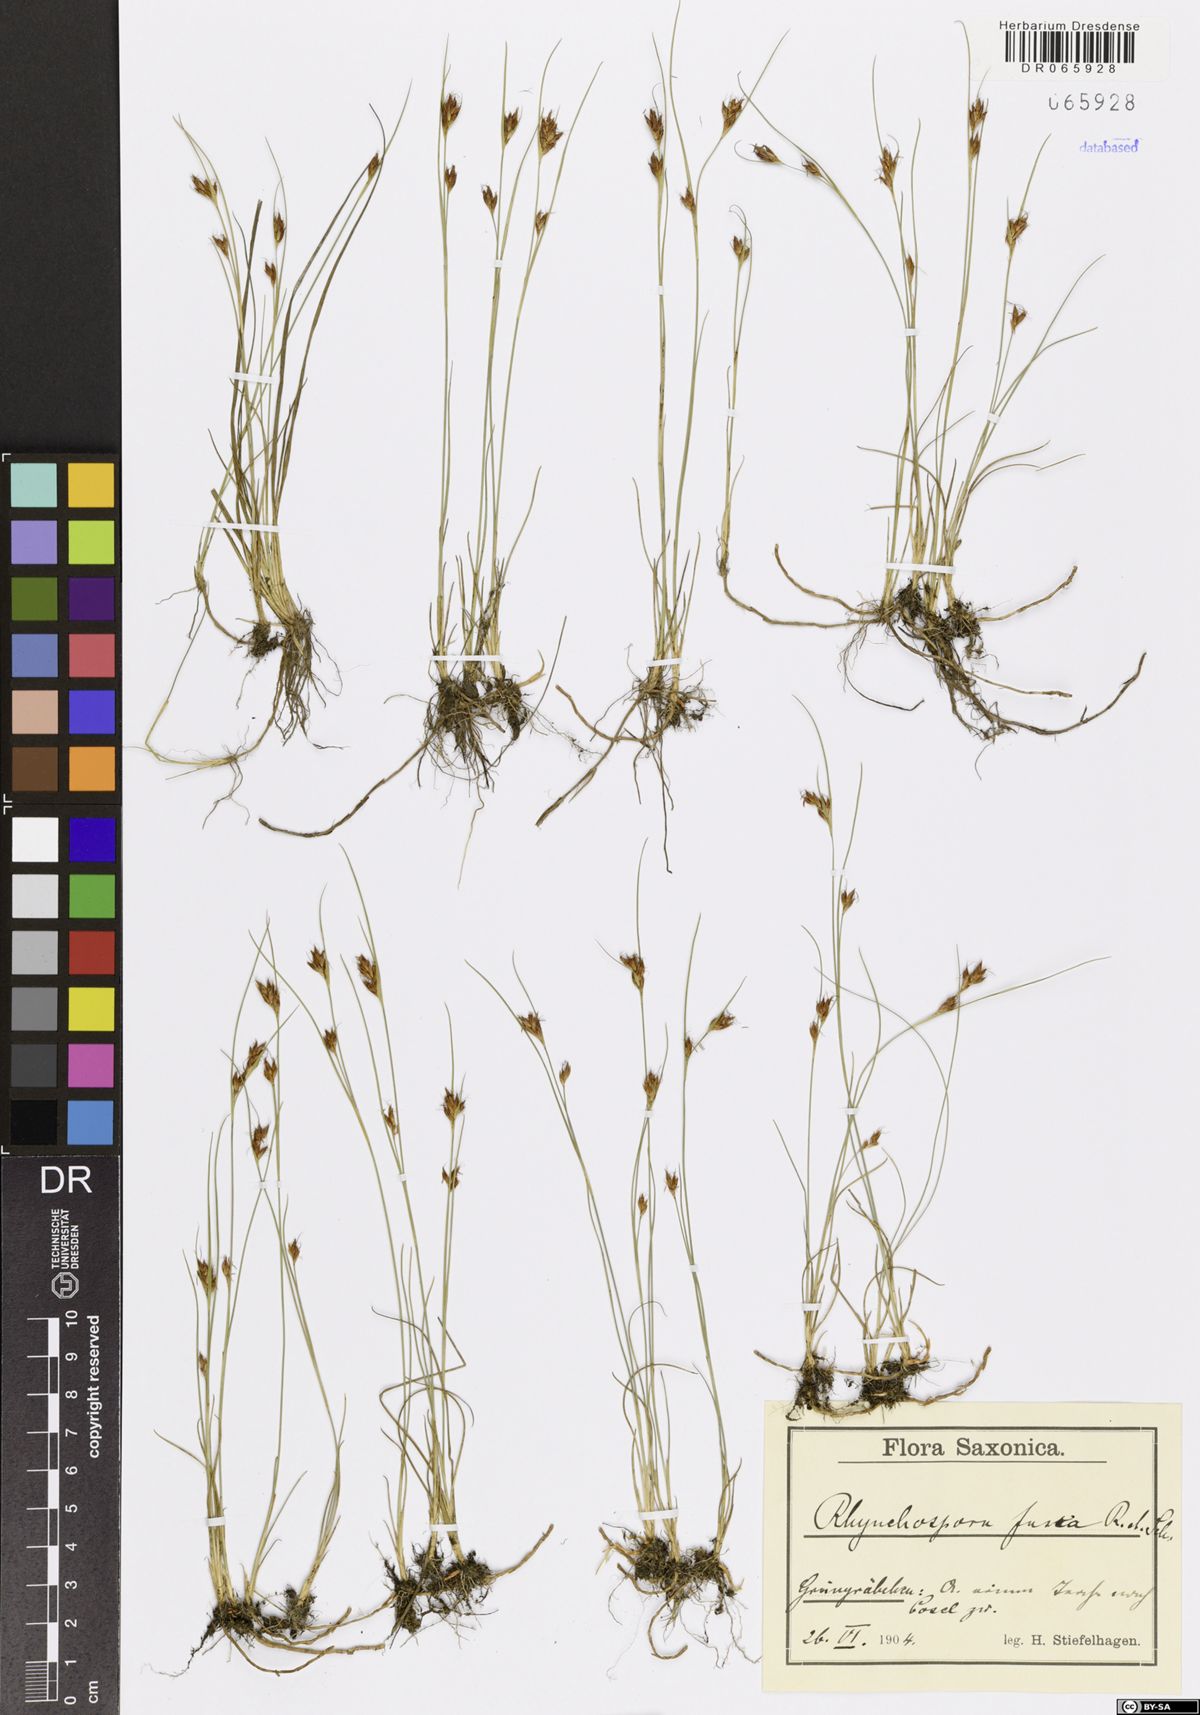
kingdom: Plantae
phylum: Tracheophyta
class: Liliopsida
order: Poales
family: Cyperaceae
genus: Rhynchospora
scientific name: Rhynchospora fusca
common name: Brown beak-sedge
